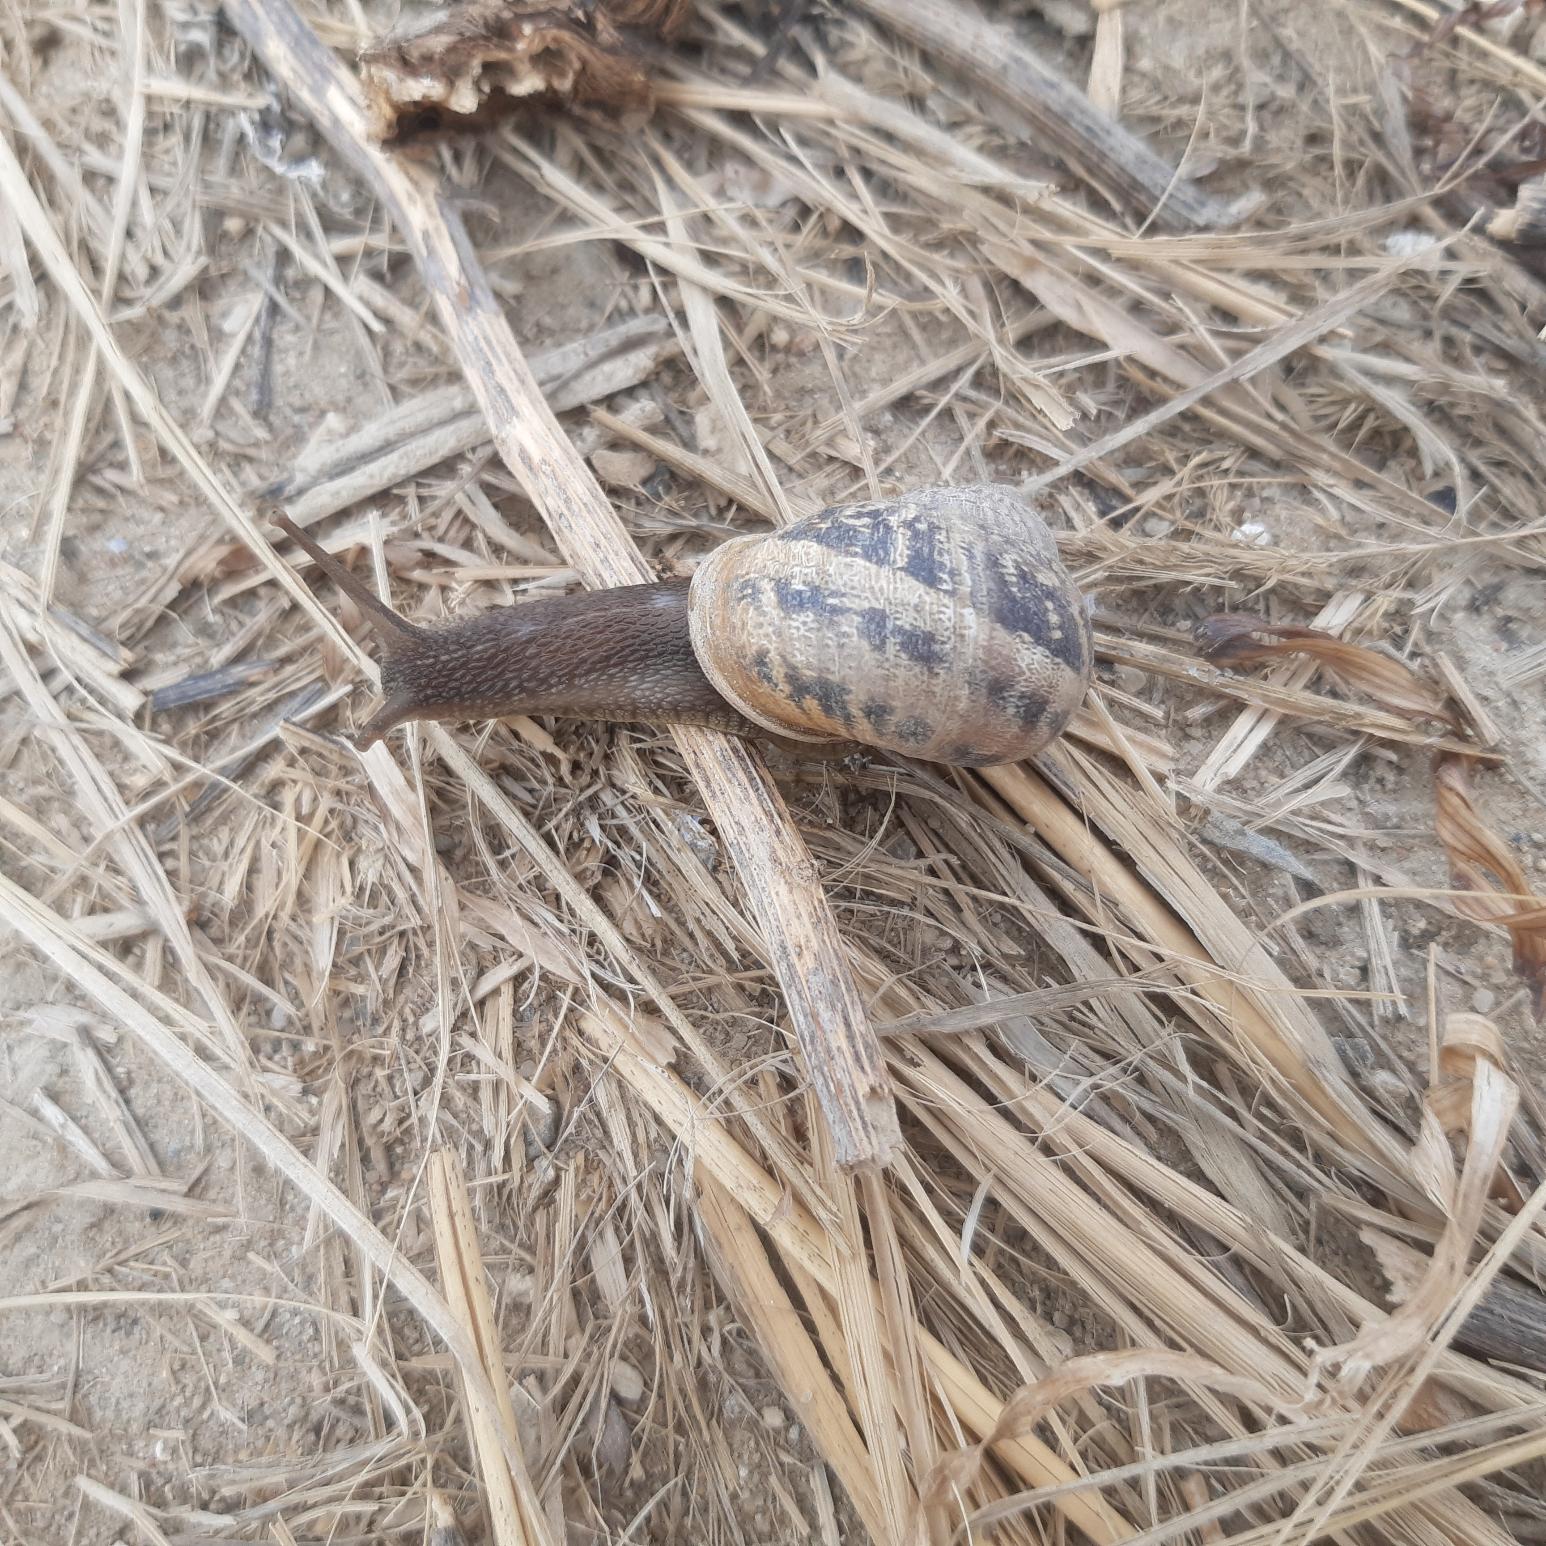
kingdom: Animalia
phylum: Mollusca
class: Gastropoda
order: Stylommatophora
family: Helicidae
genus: Cornu
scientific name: Cornu aspersum
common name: Plettet voldsnegl
